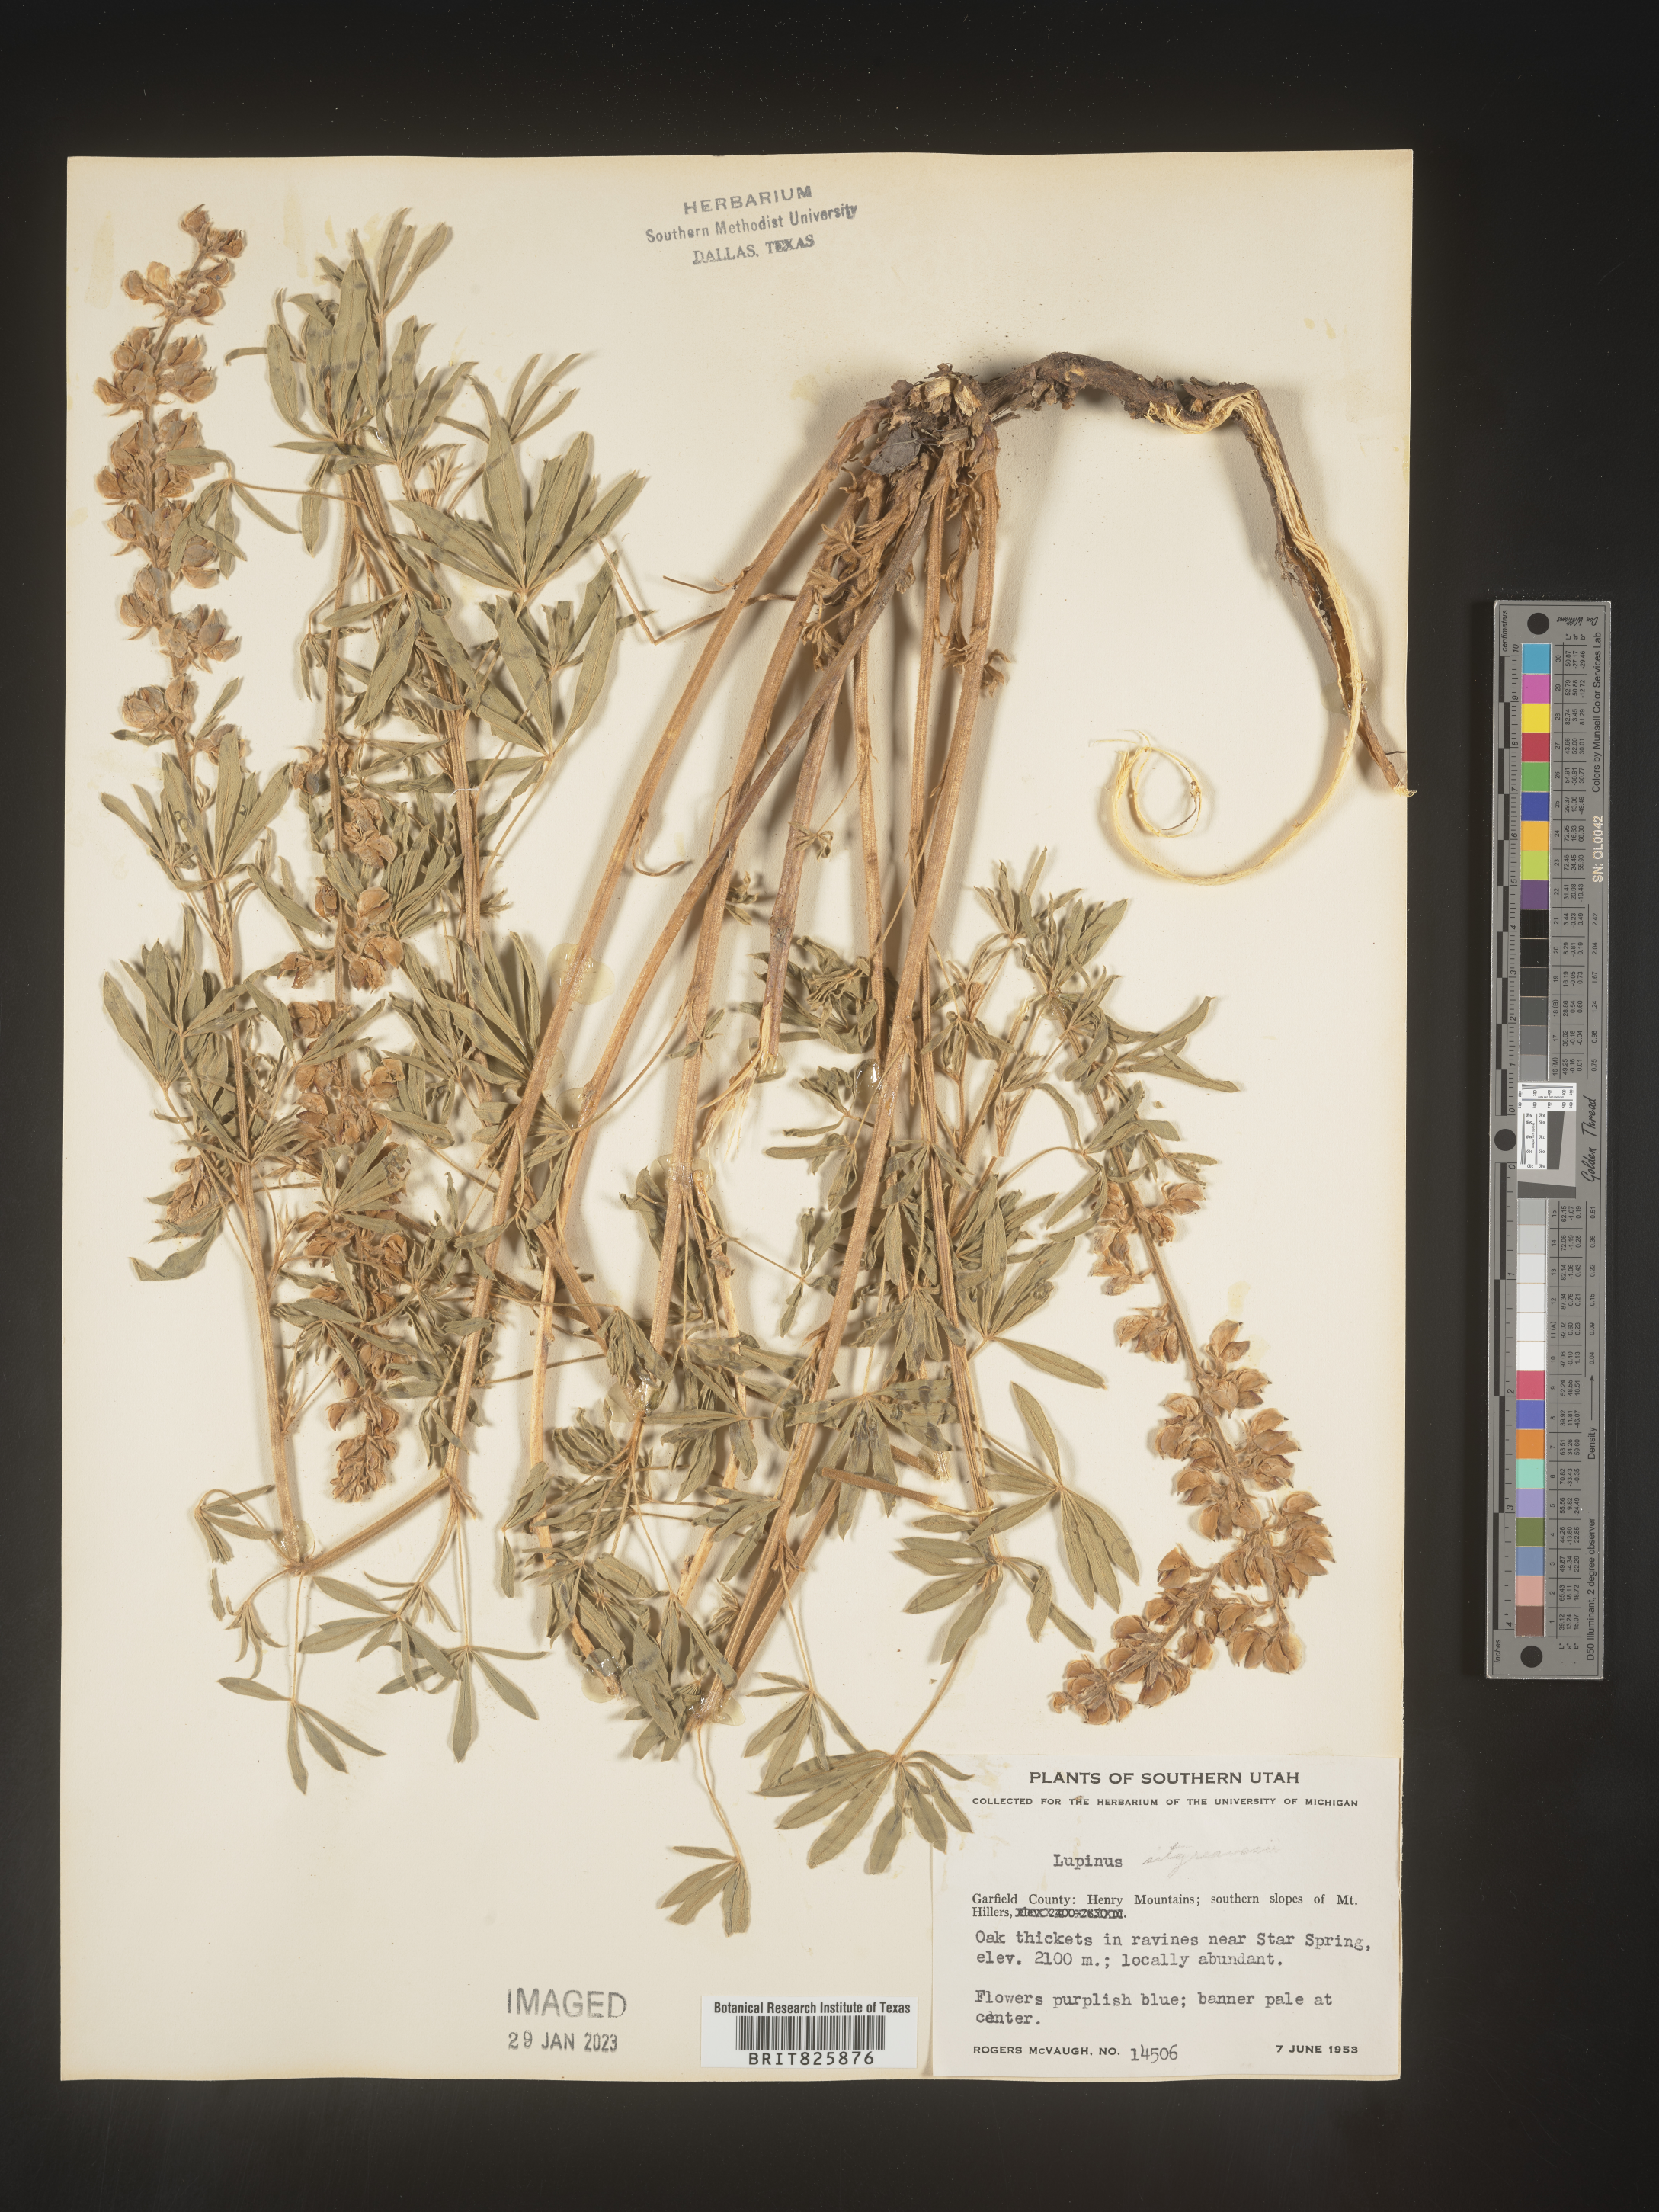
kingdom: Plantae
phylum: Tracheophyta
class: Magnoliopsida
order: Fabales
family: Fabaceae
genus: Lupinus
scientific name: Lupinus
